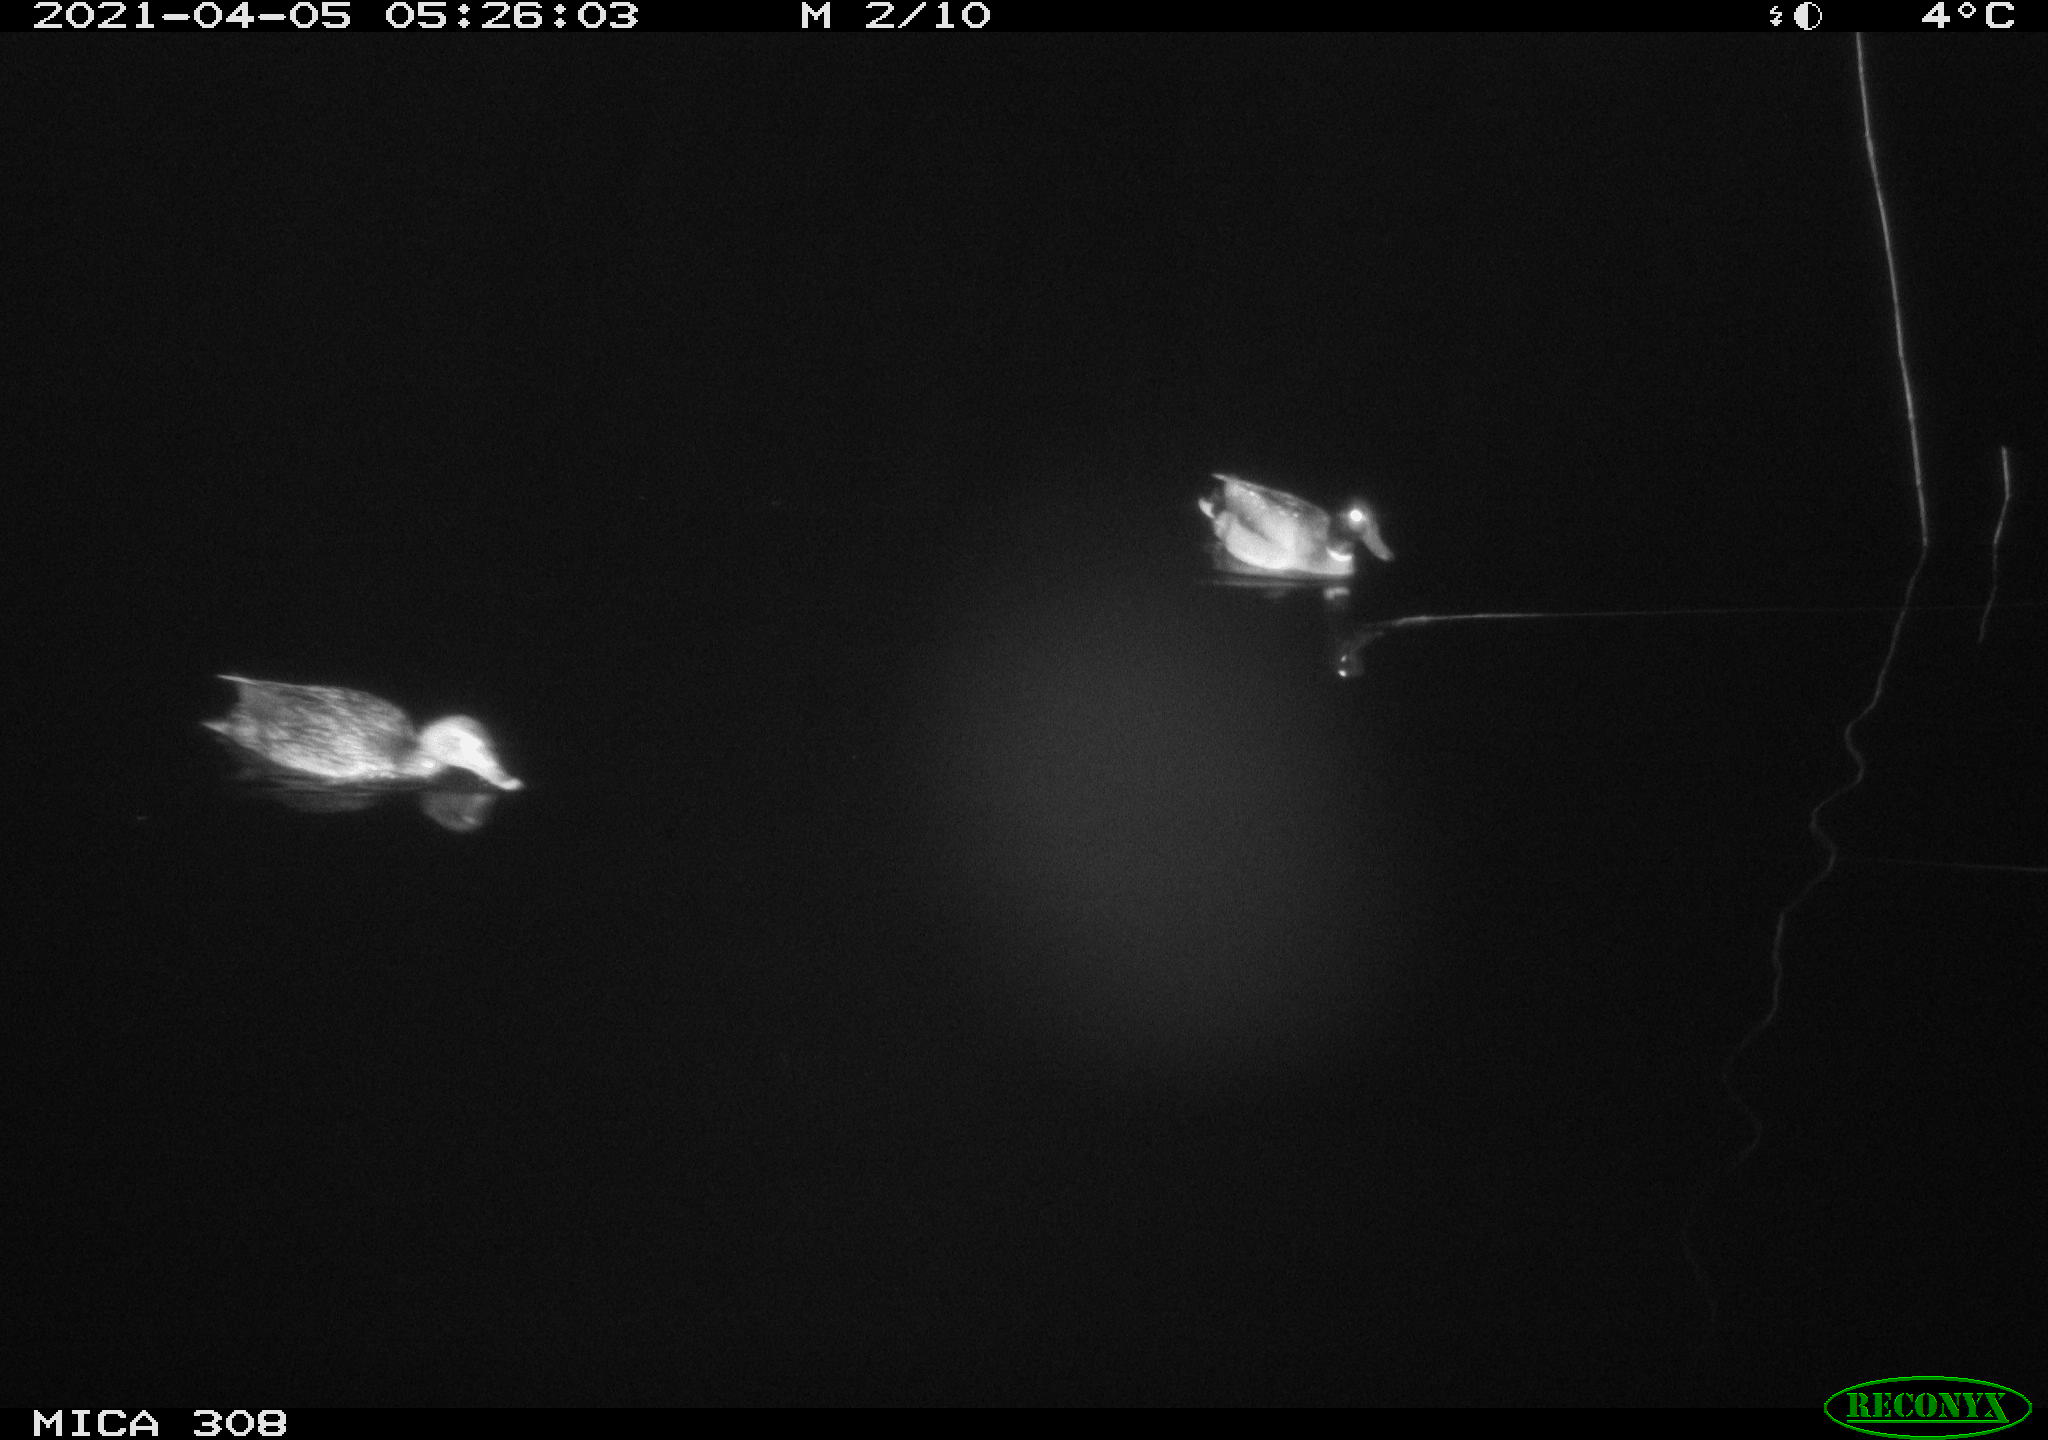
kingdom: Animalia
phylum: Chordata
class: Aves
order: Anseriformes
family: Anatidae
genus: Anas
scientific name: Anas platyrhynchos
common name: Mallard
